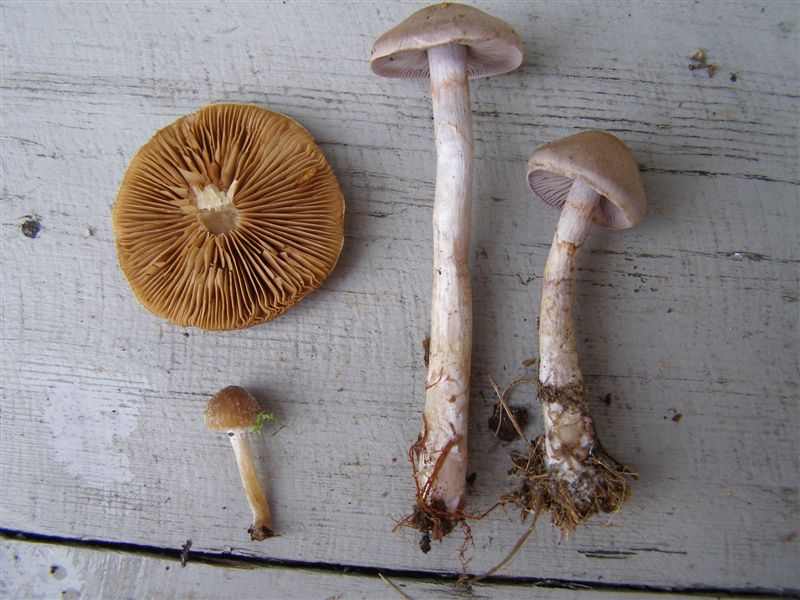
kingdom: Fungi
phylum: Basidiomycota
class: Agaricomycetes
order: Agaricales
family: Cortinariaceae
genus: Cortinarius
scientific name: Cortinarius spilomeus
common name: rødfnugget slørhat
